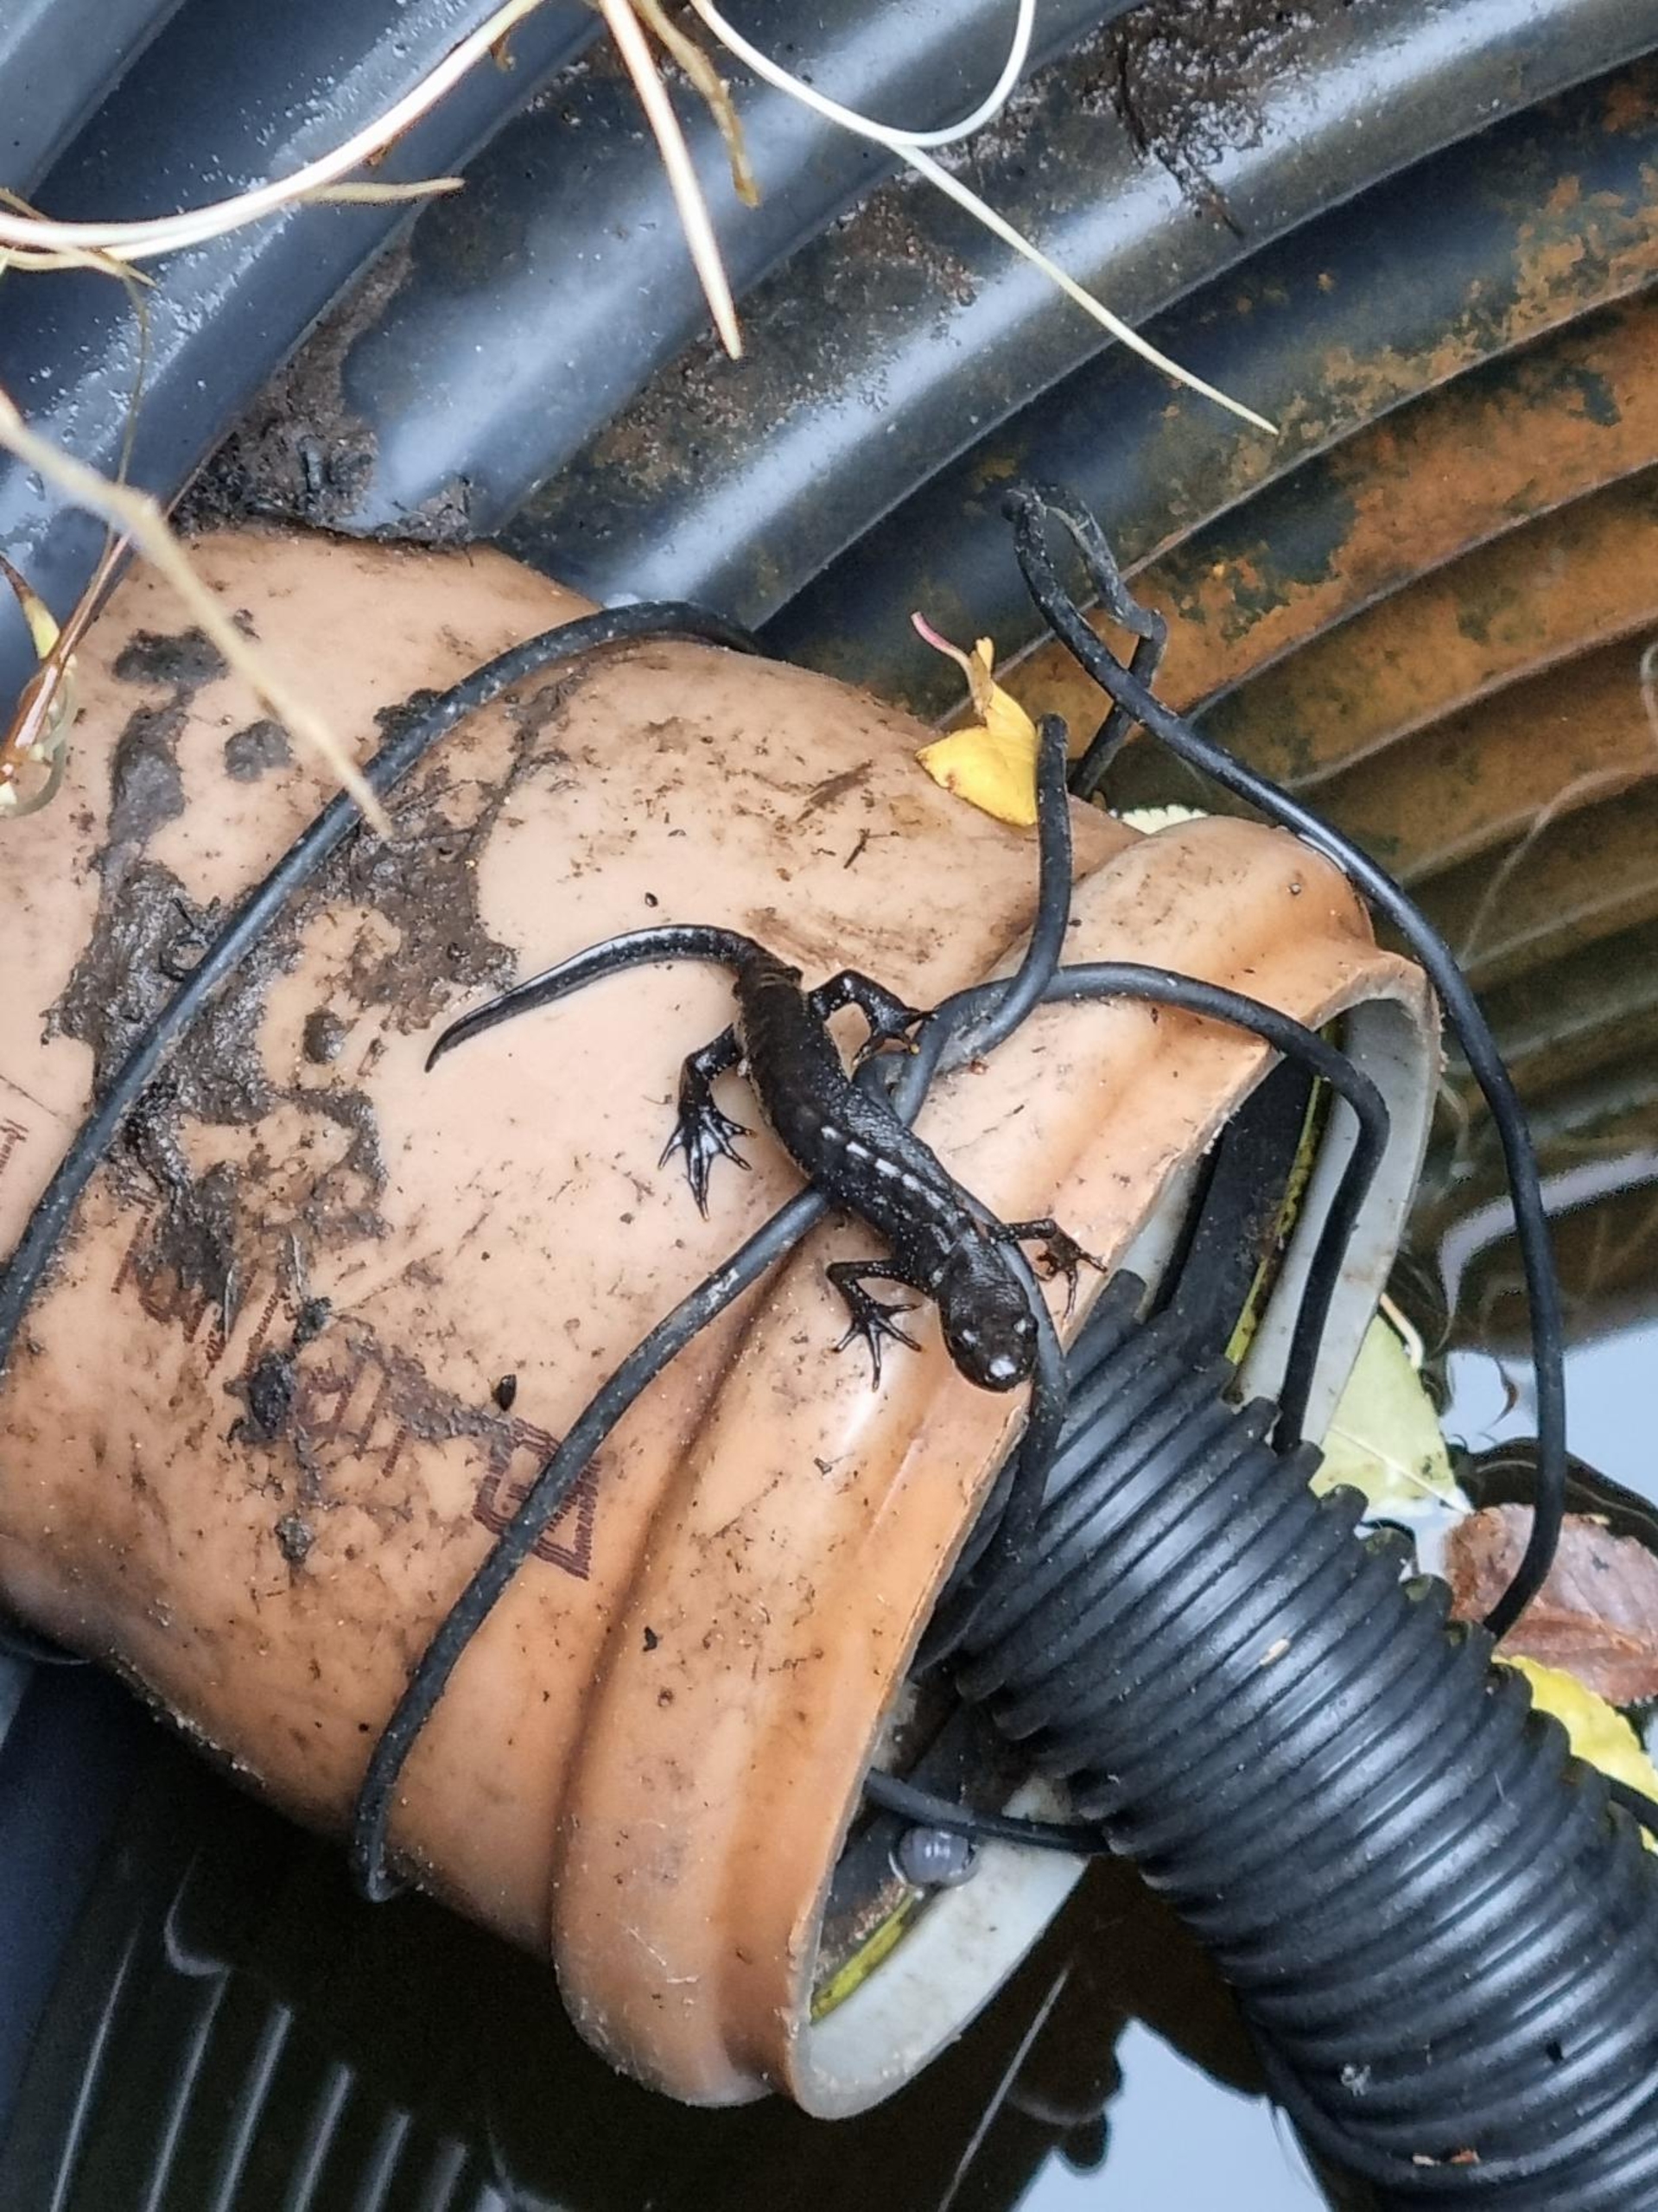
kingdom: Animalia
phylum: Chordata
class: Amphibia
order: Caudata
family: Salamandridae
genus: Triturus
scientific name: Triturus cristatus
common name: Stor vandsalamander
